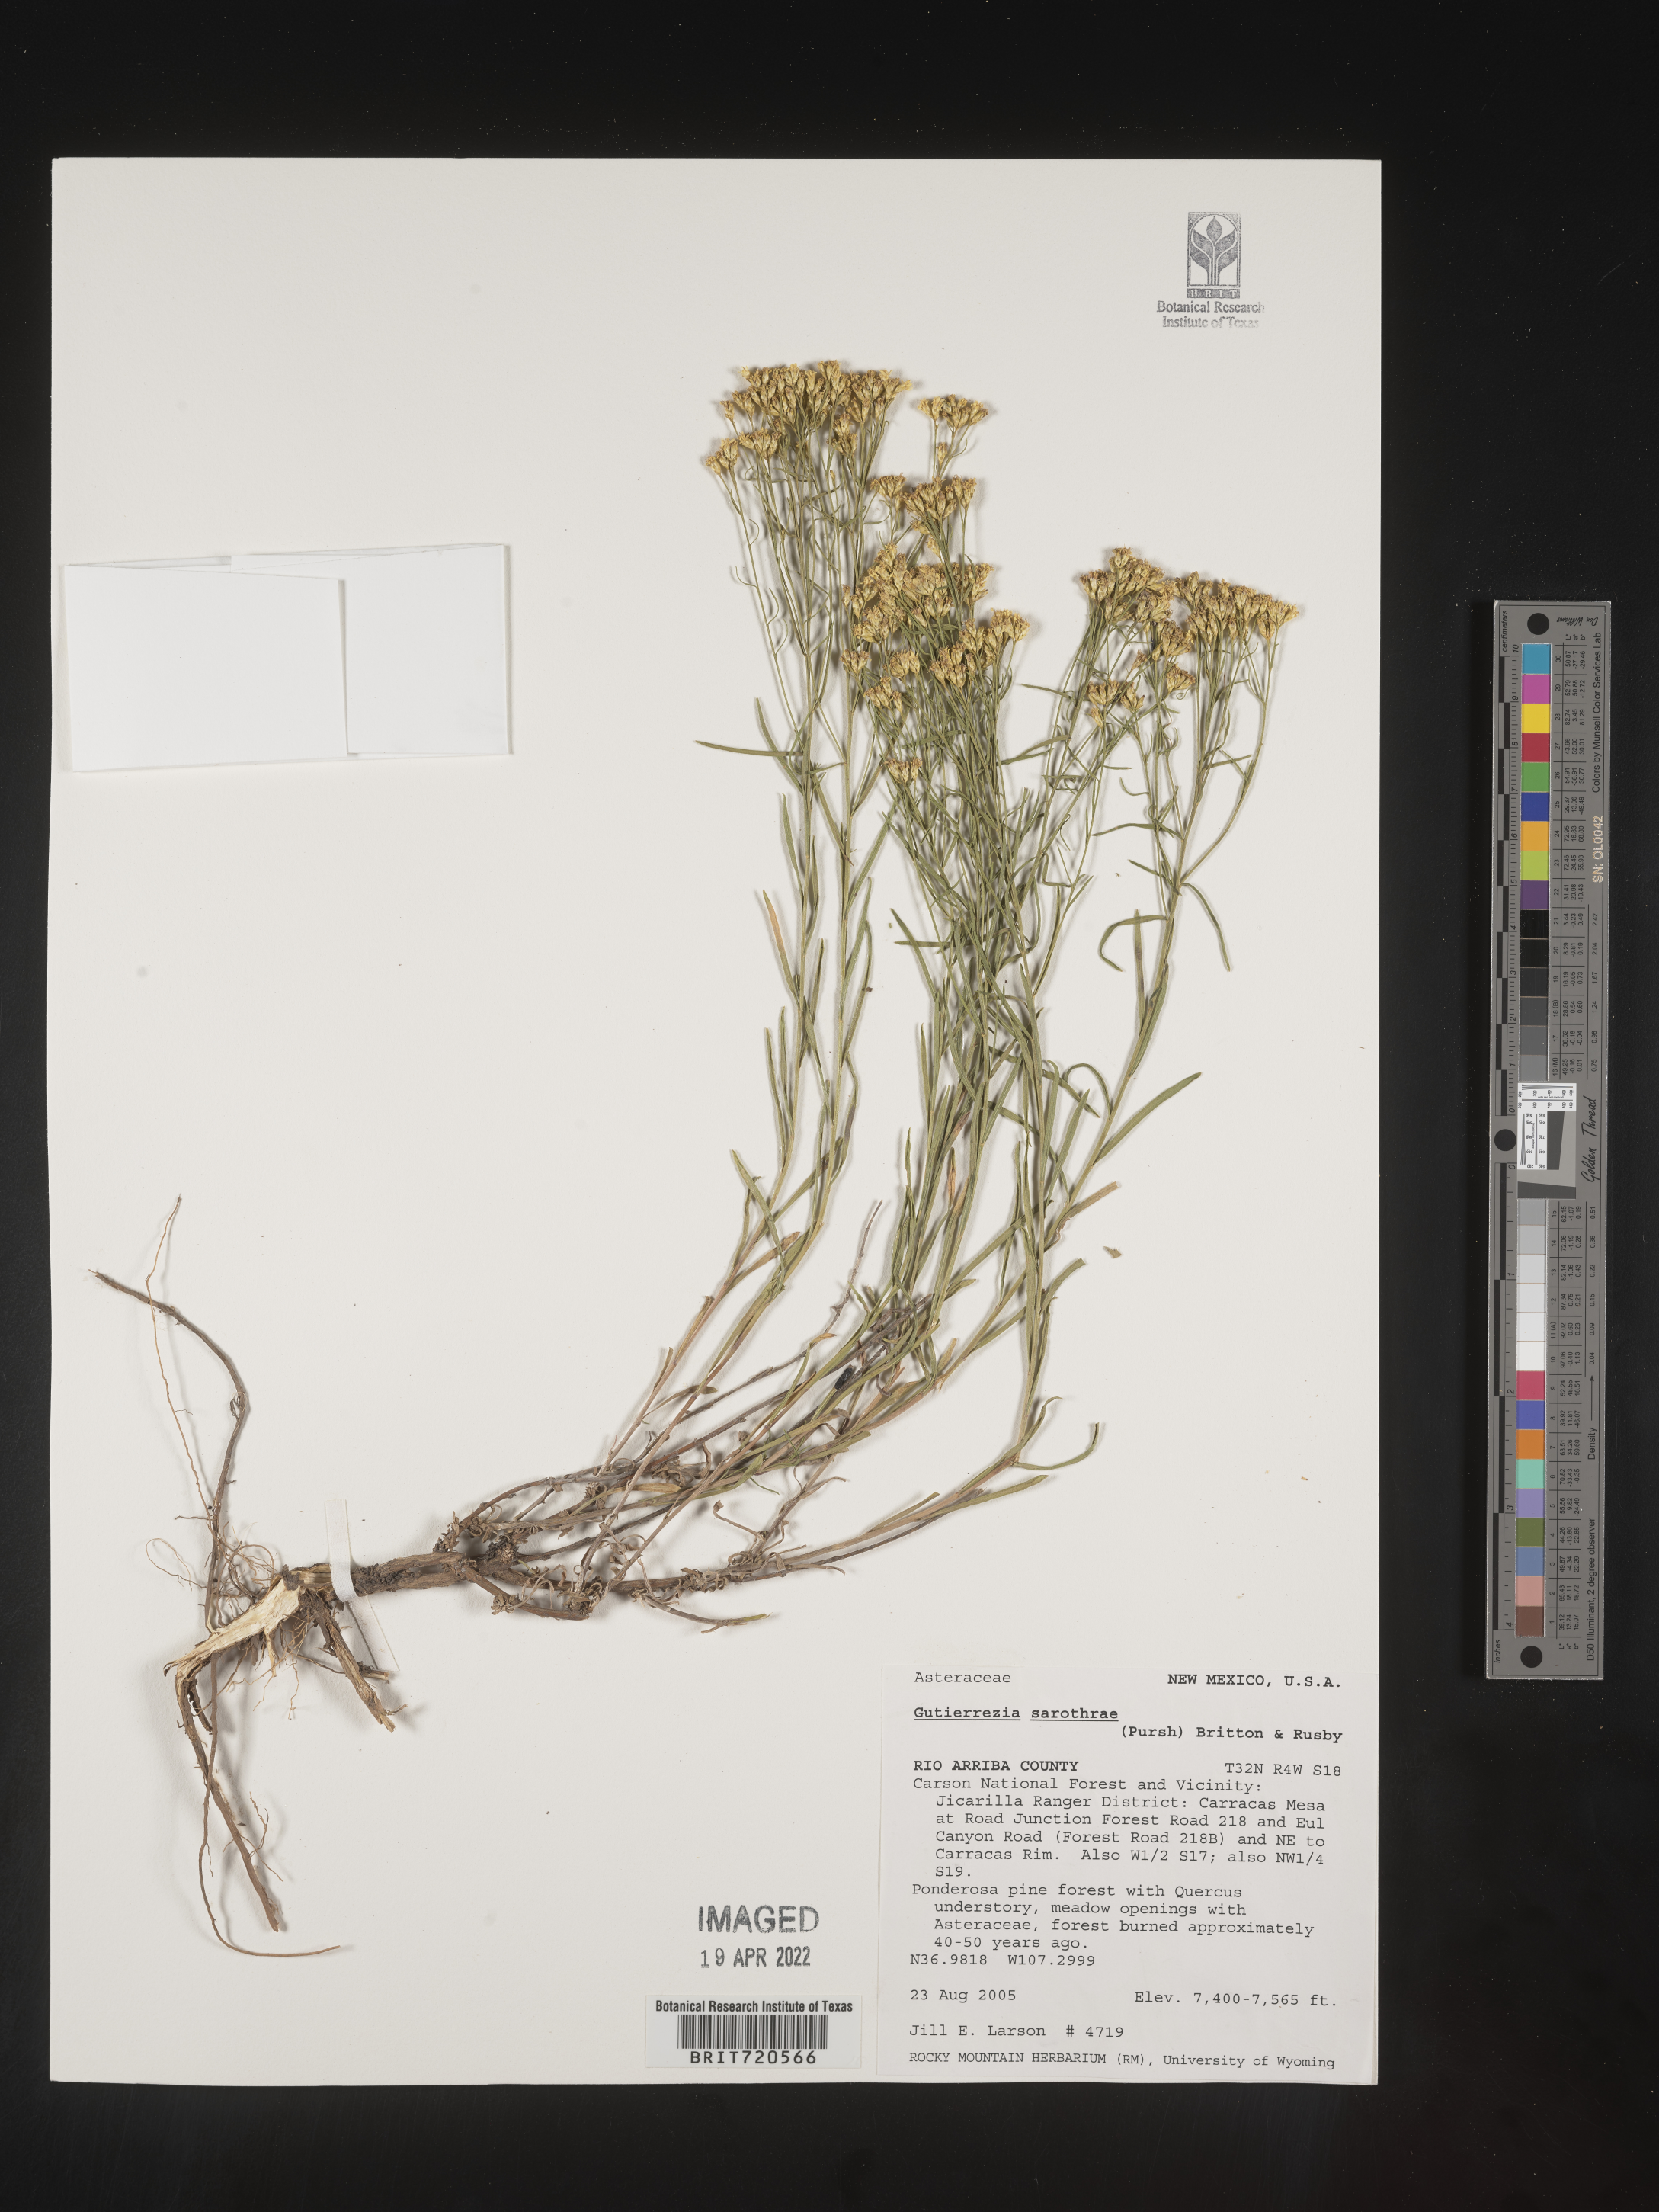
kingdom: Plantae
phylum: Tracheophyta
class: Magnoliopsida
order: Asterales
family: Asteraceae
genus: Gutierrezia
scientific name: Gutierrezia sarothrae
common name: Broom snakeweed
